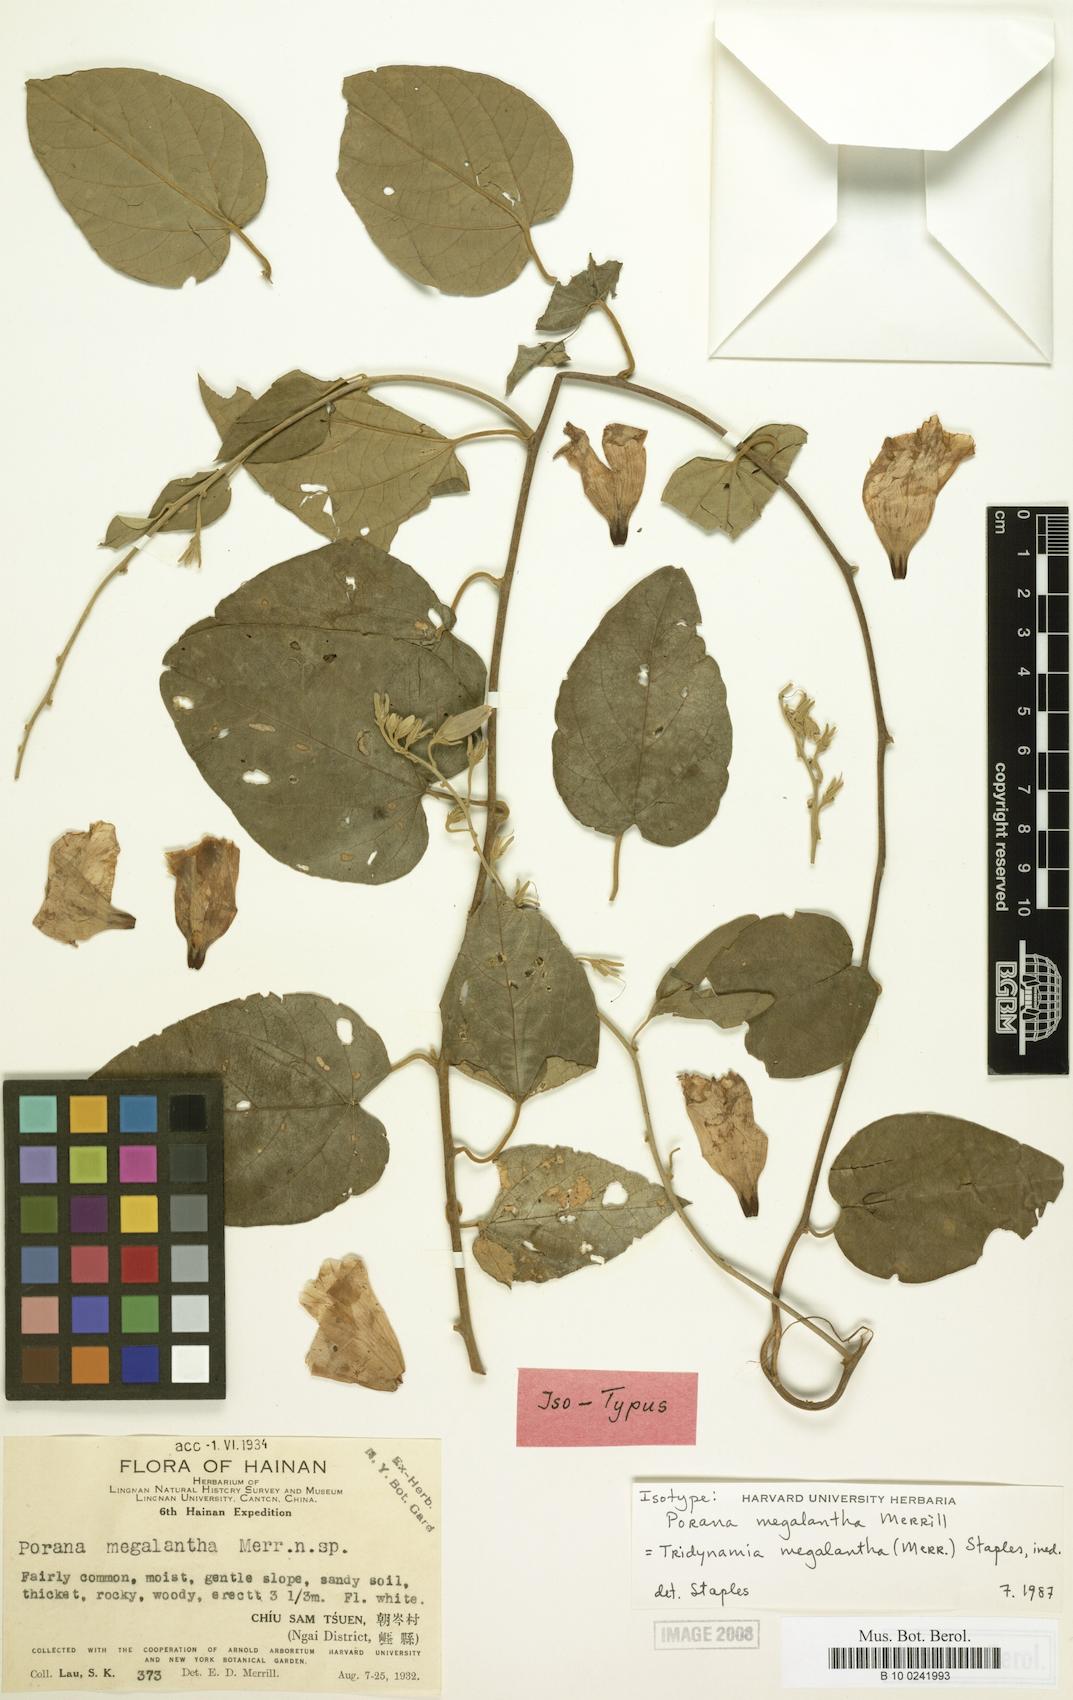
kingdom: Plantae
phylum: Tracheophyta
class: Magnoliopsida
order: Solanales
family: Convolvulaceae
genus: Tridynamia
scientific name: Tridynamia megalantha
